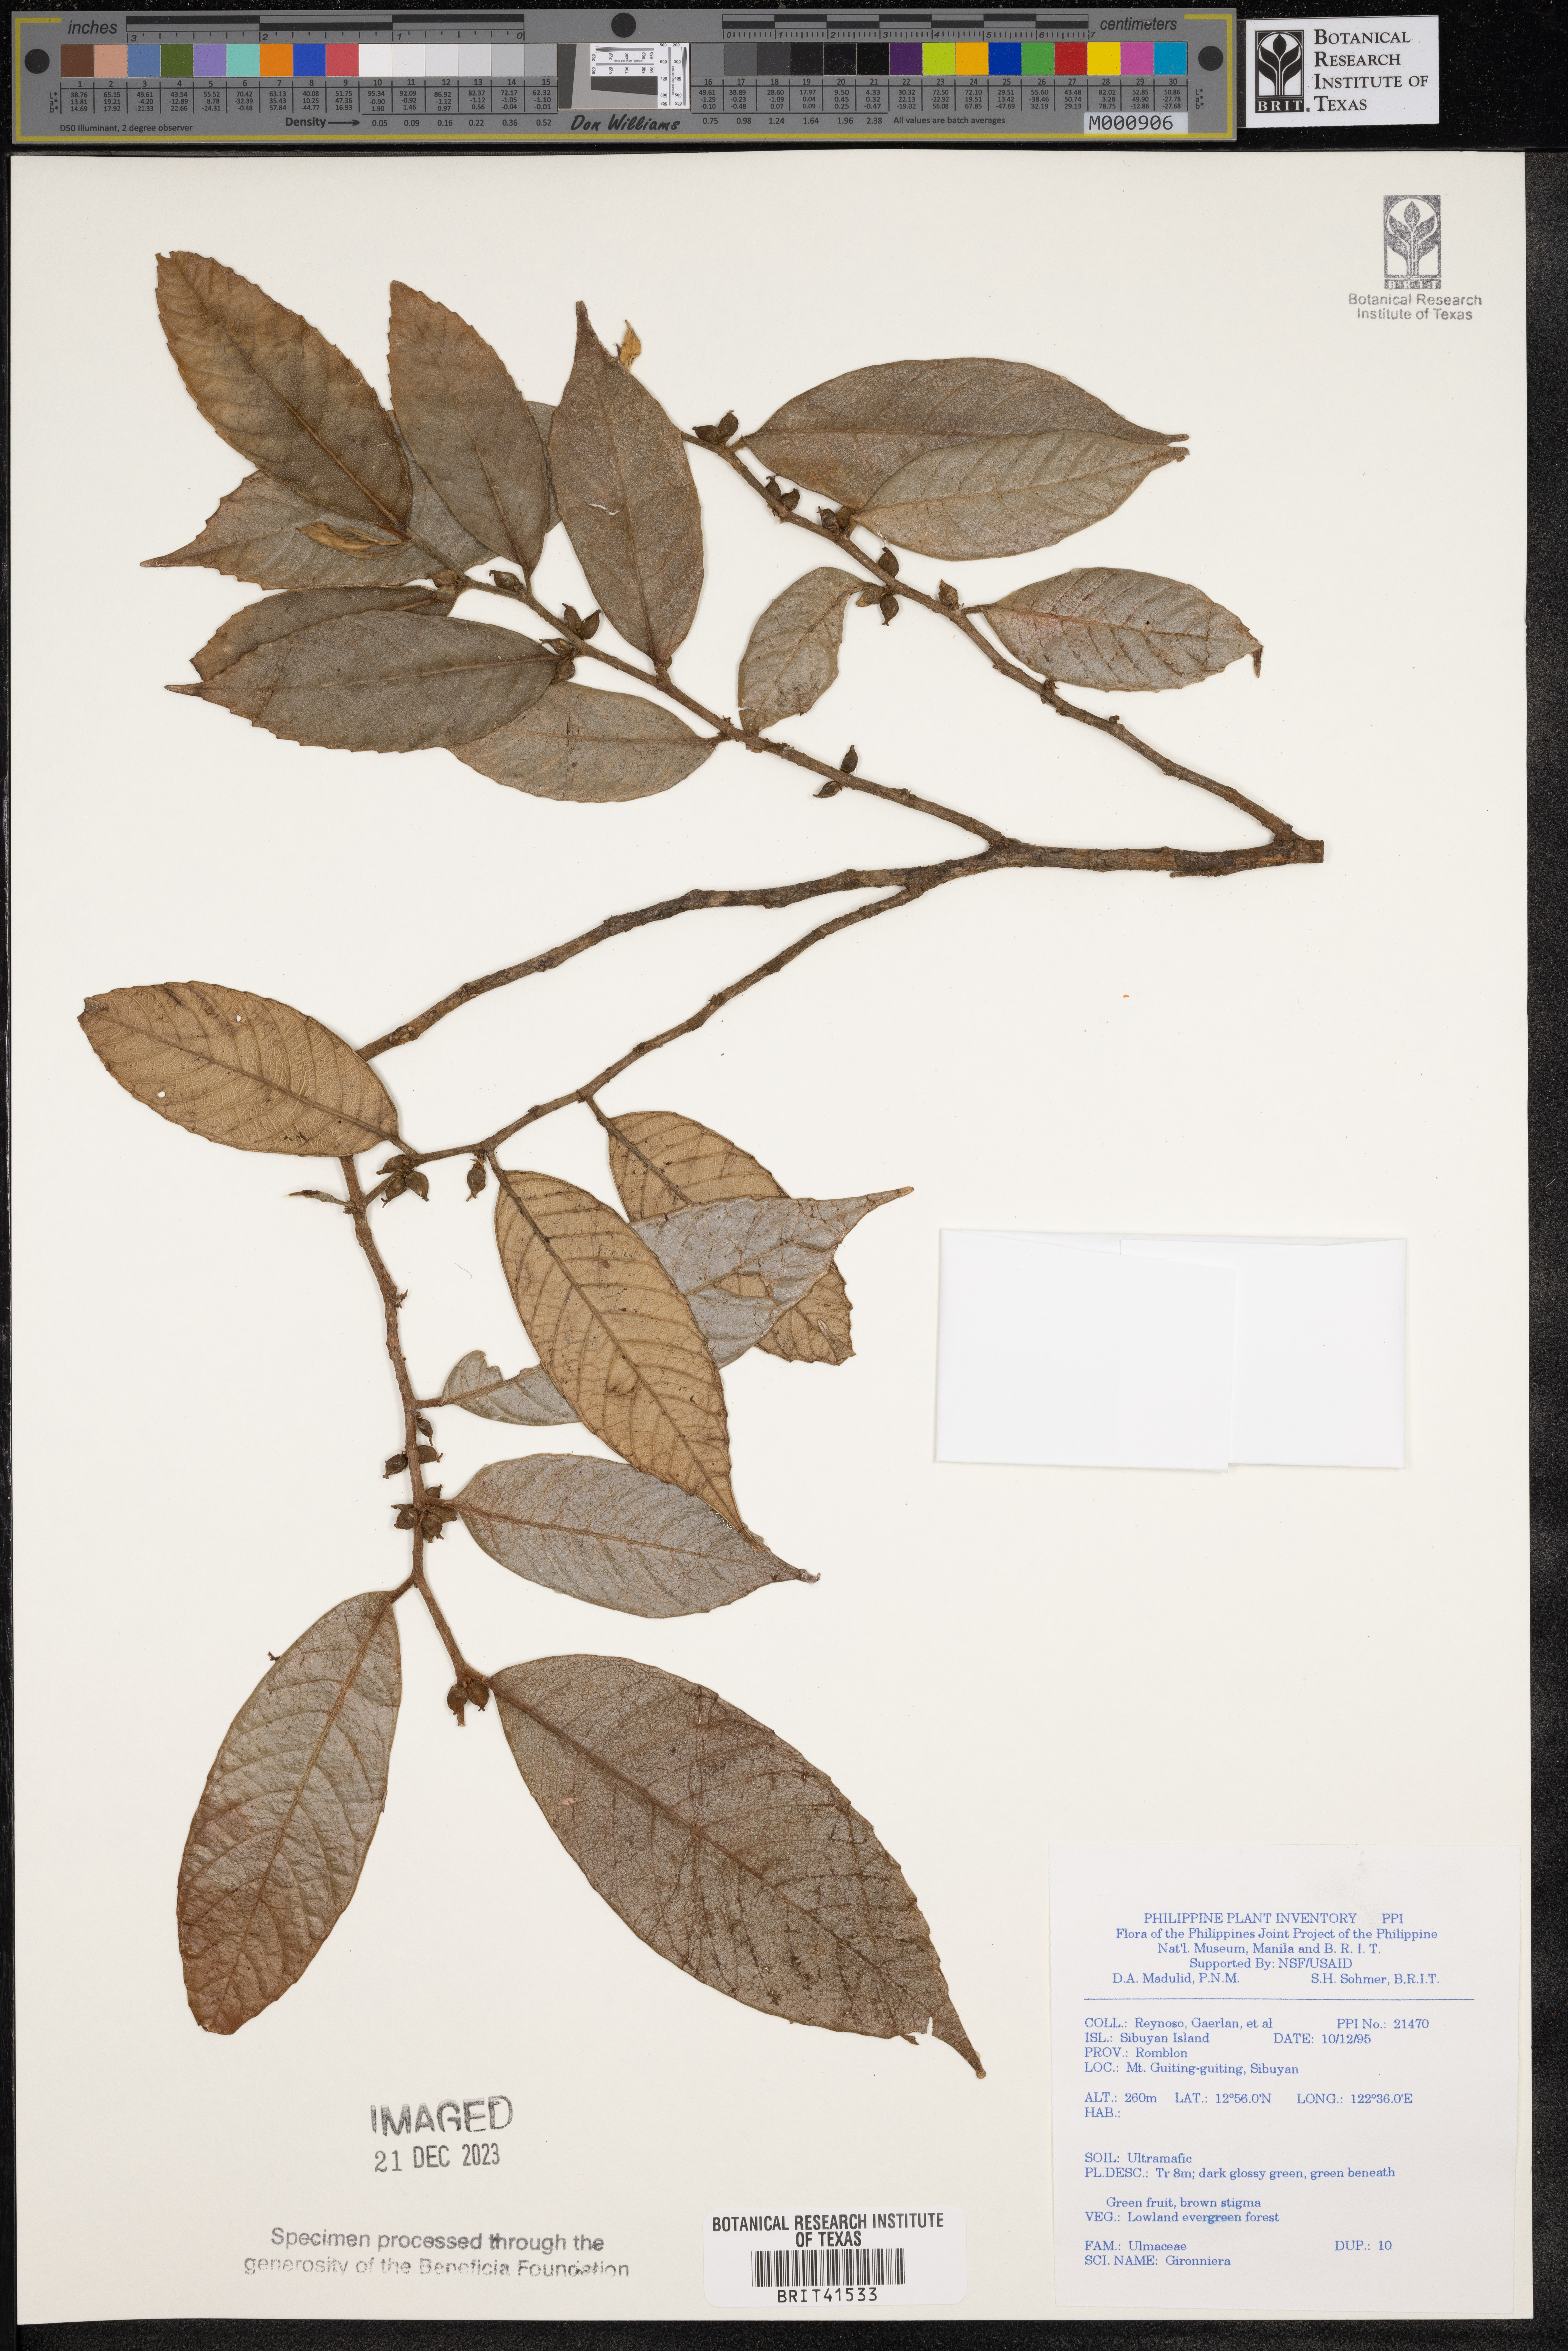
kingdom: Plantae
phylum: Tracheophyta
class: Magnoliopsida
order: Rosales
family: Cannabaceae
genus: Gironniera
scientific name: Gironniera
